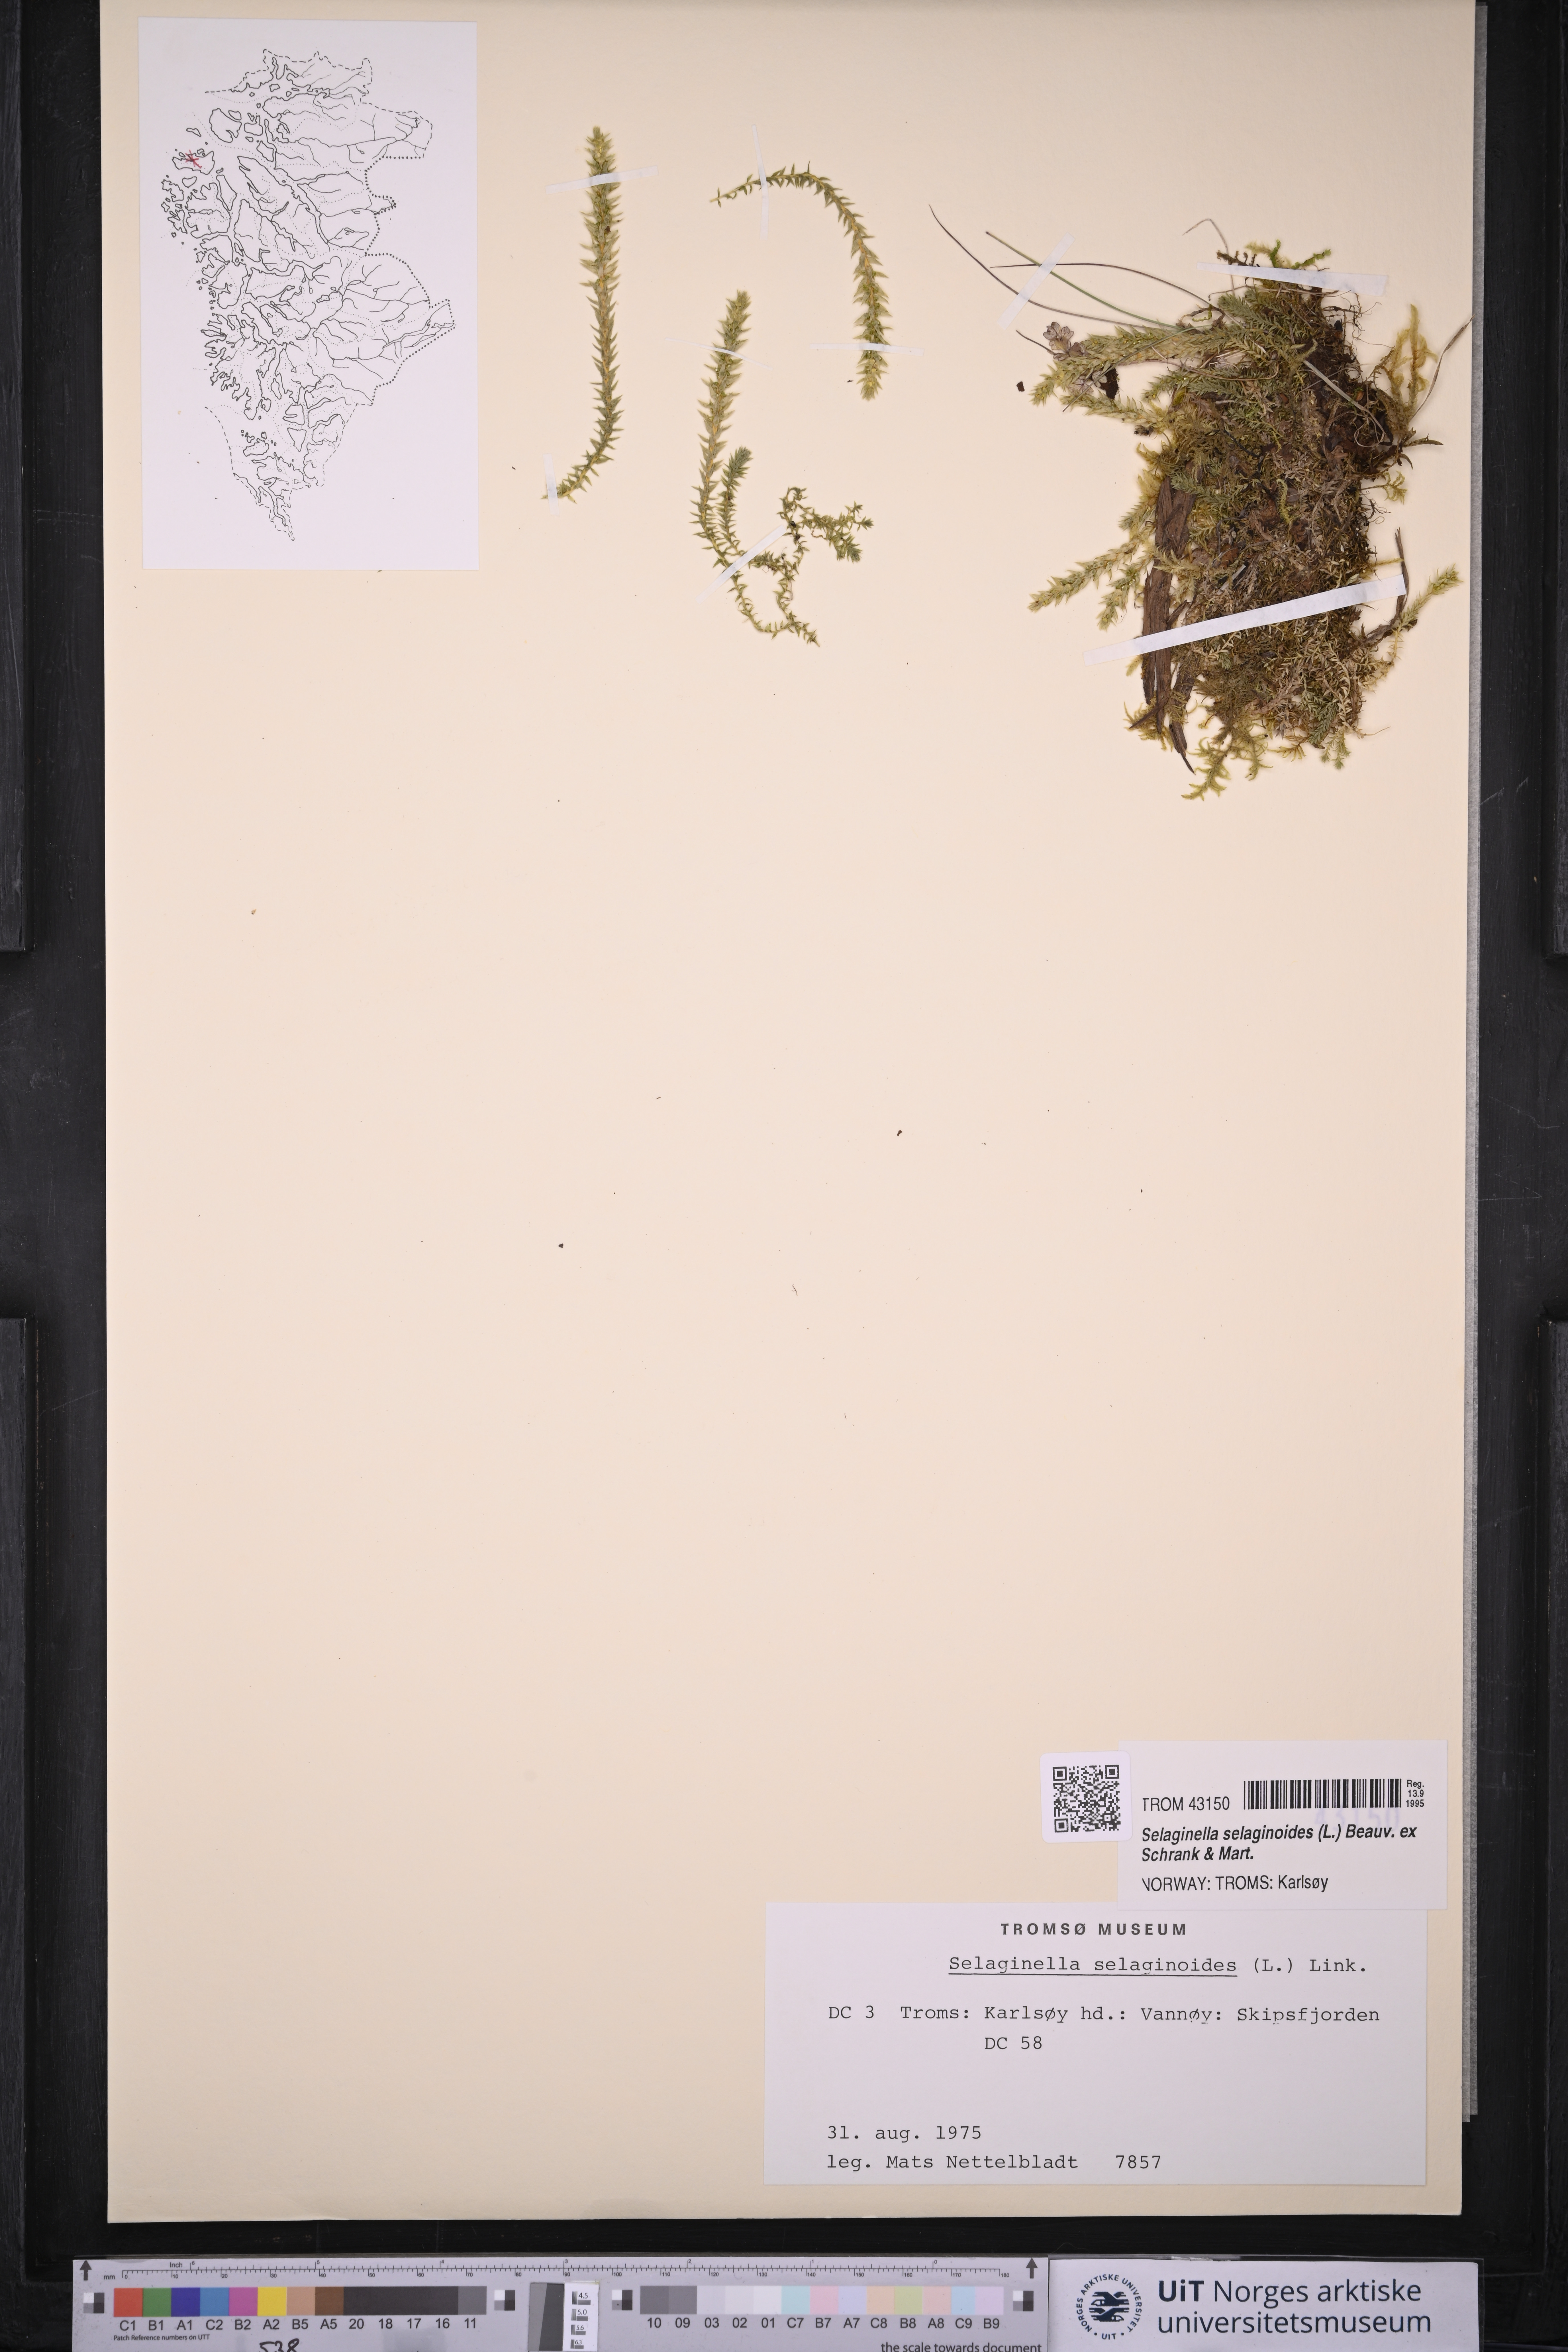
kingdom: Plantae
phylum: Tracheophyta
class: Lycopodiopsida
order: Selaginellales
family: Selaginellaceae
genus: Selaginella
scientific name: Selaginella selaginoides
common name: Prickly mountain-moss
